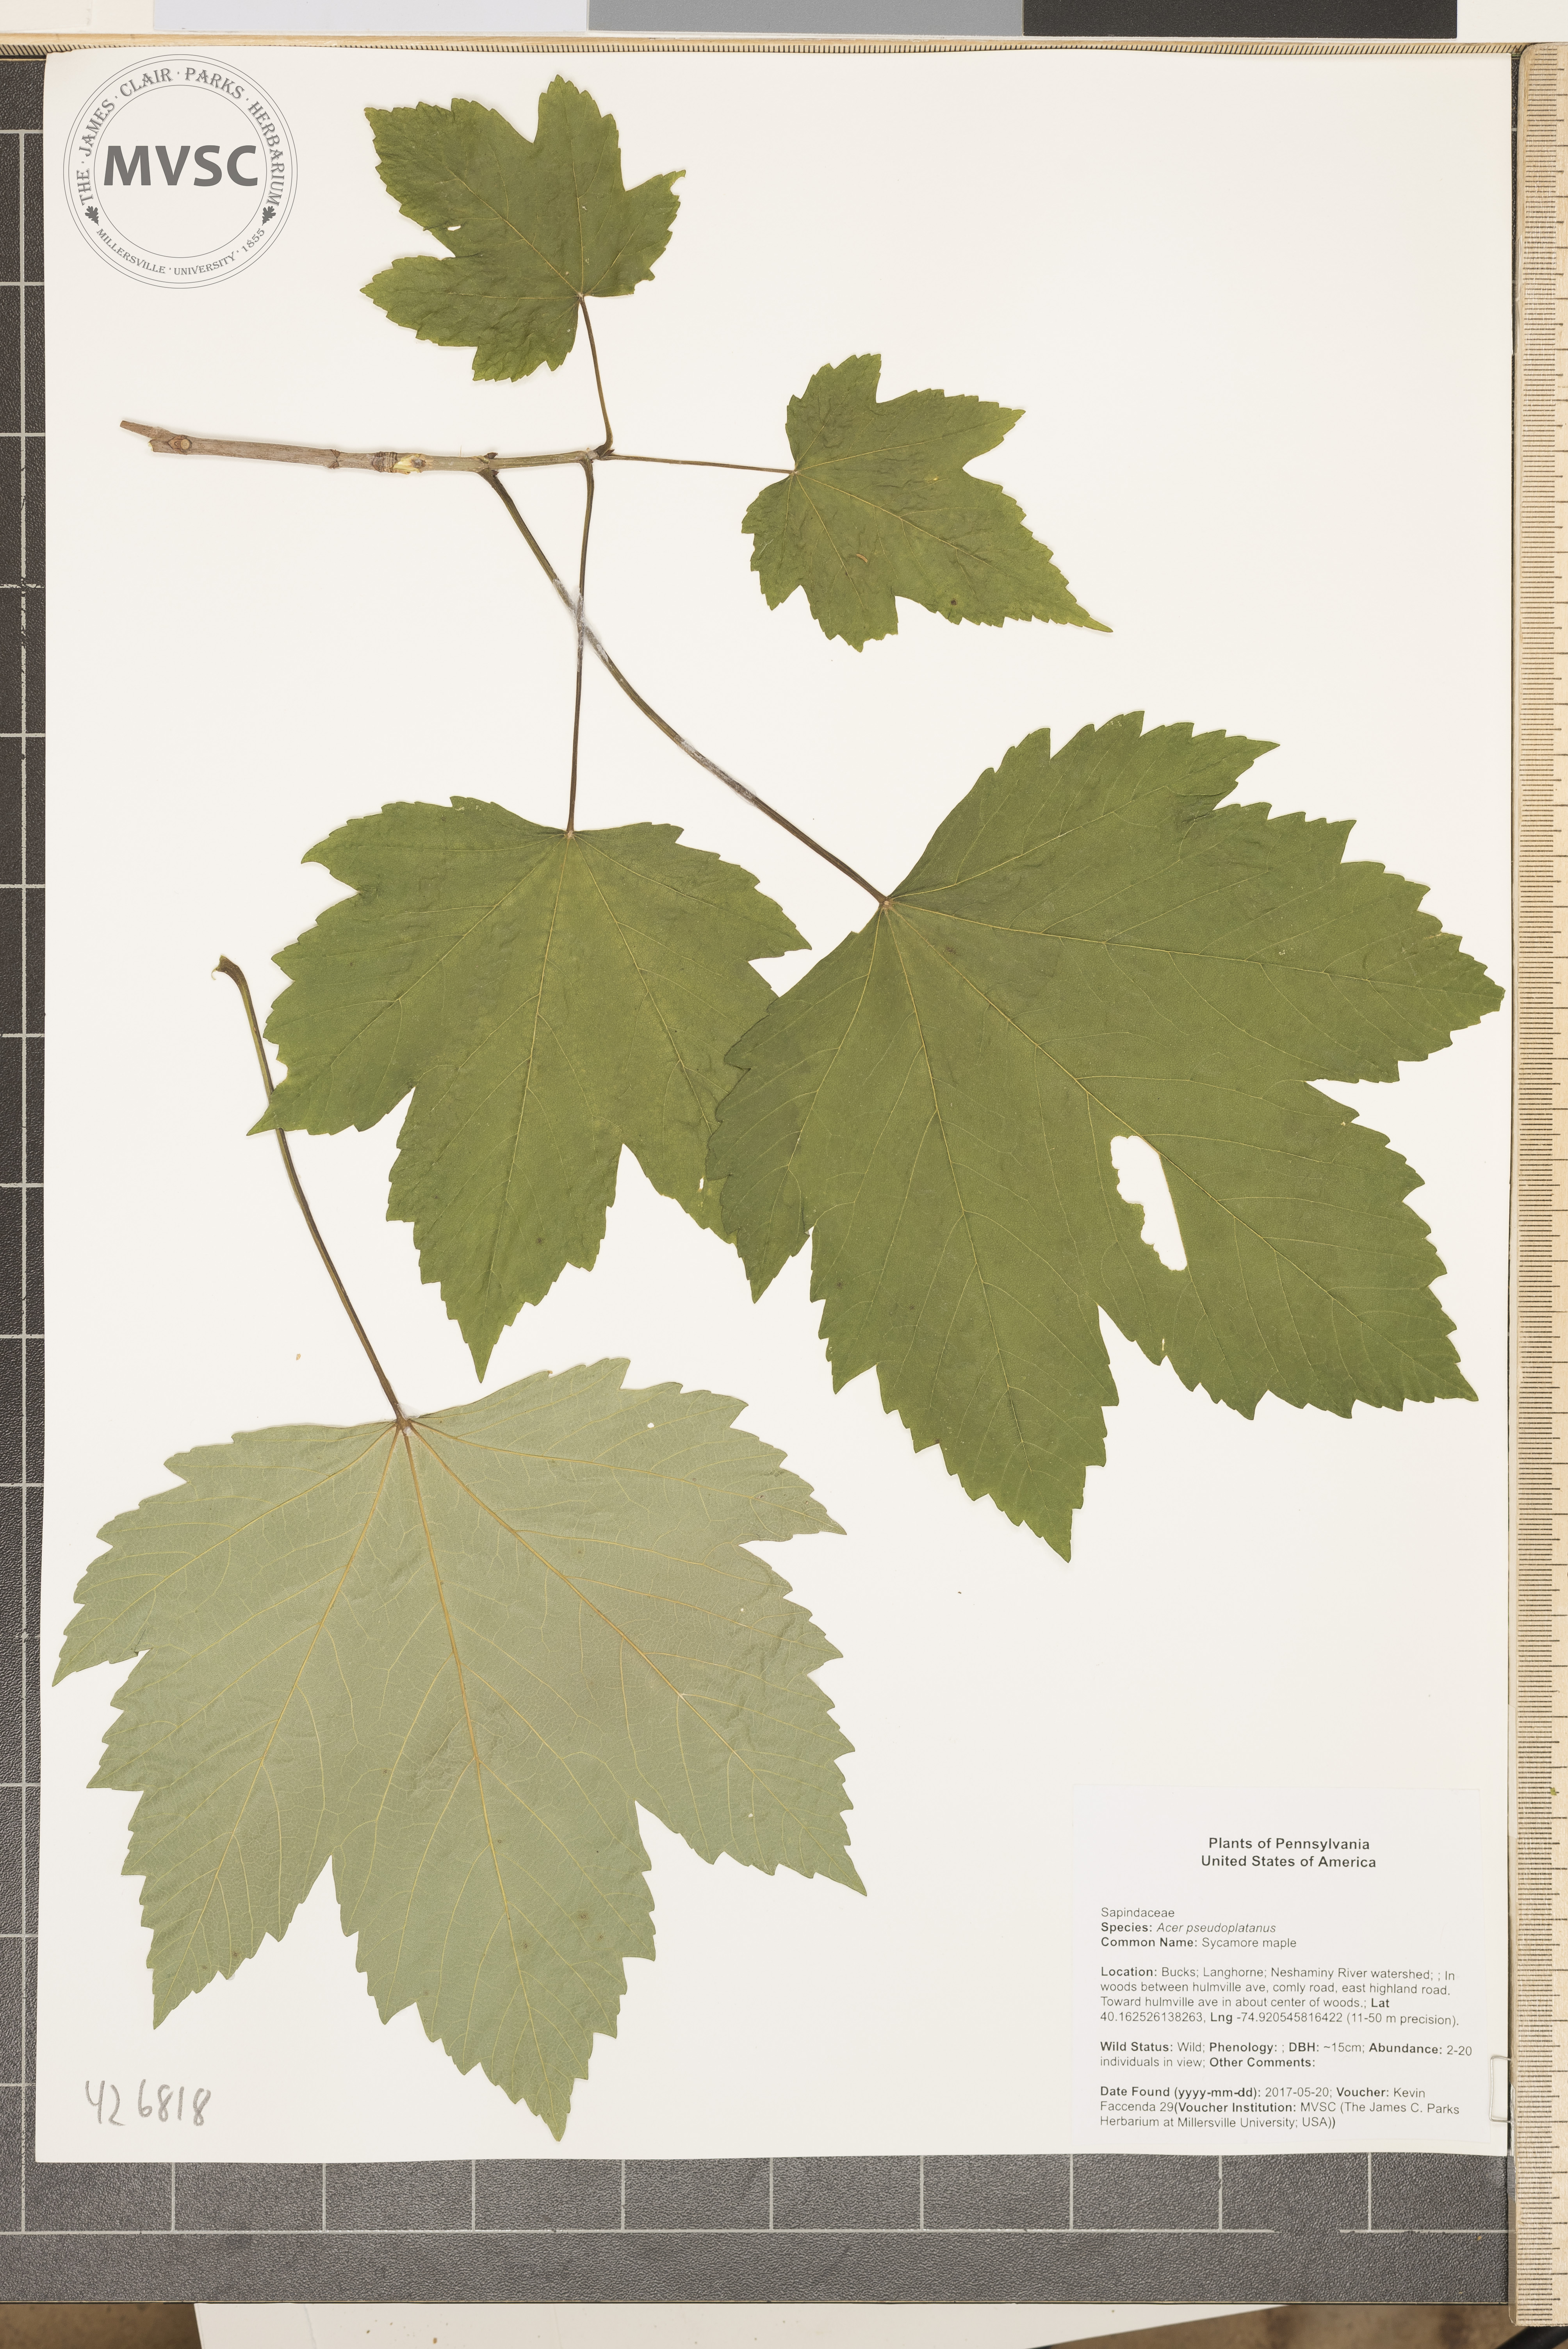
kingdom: Plantae
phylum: Tracheophyta
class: Magnoliopsida
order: Sapindales
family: Sapindaceae
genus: Acer
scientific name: Acer pseudoplatanus
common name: Sycamore maple
